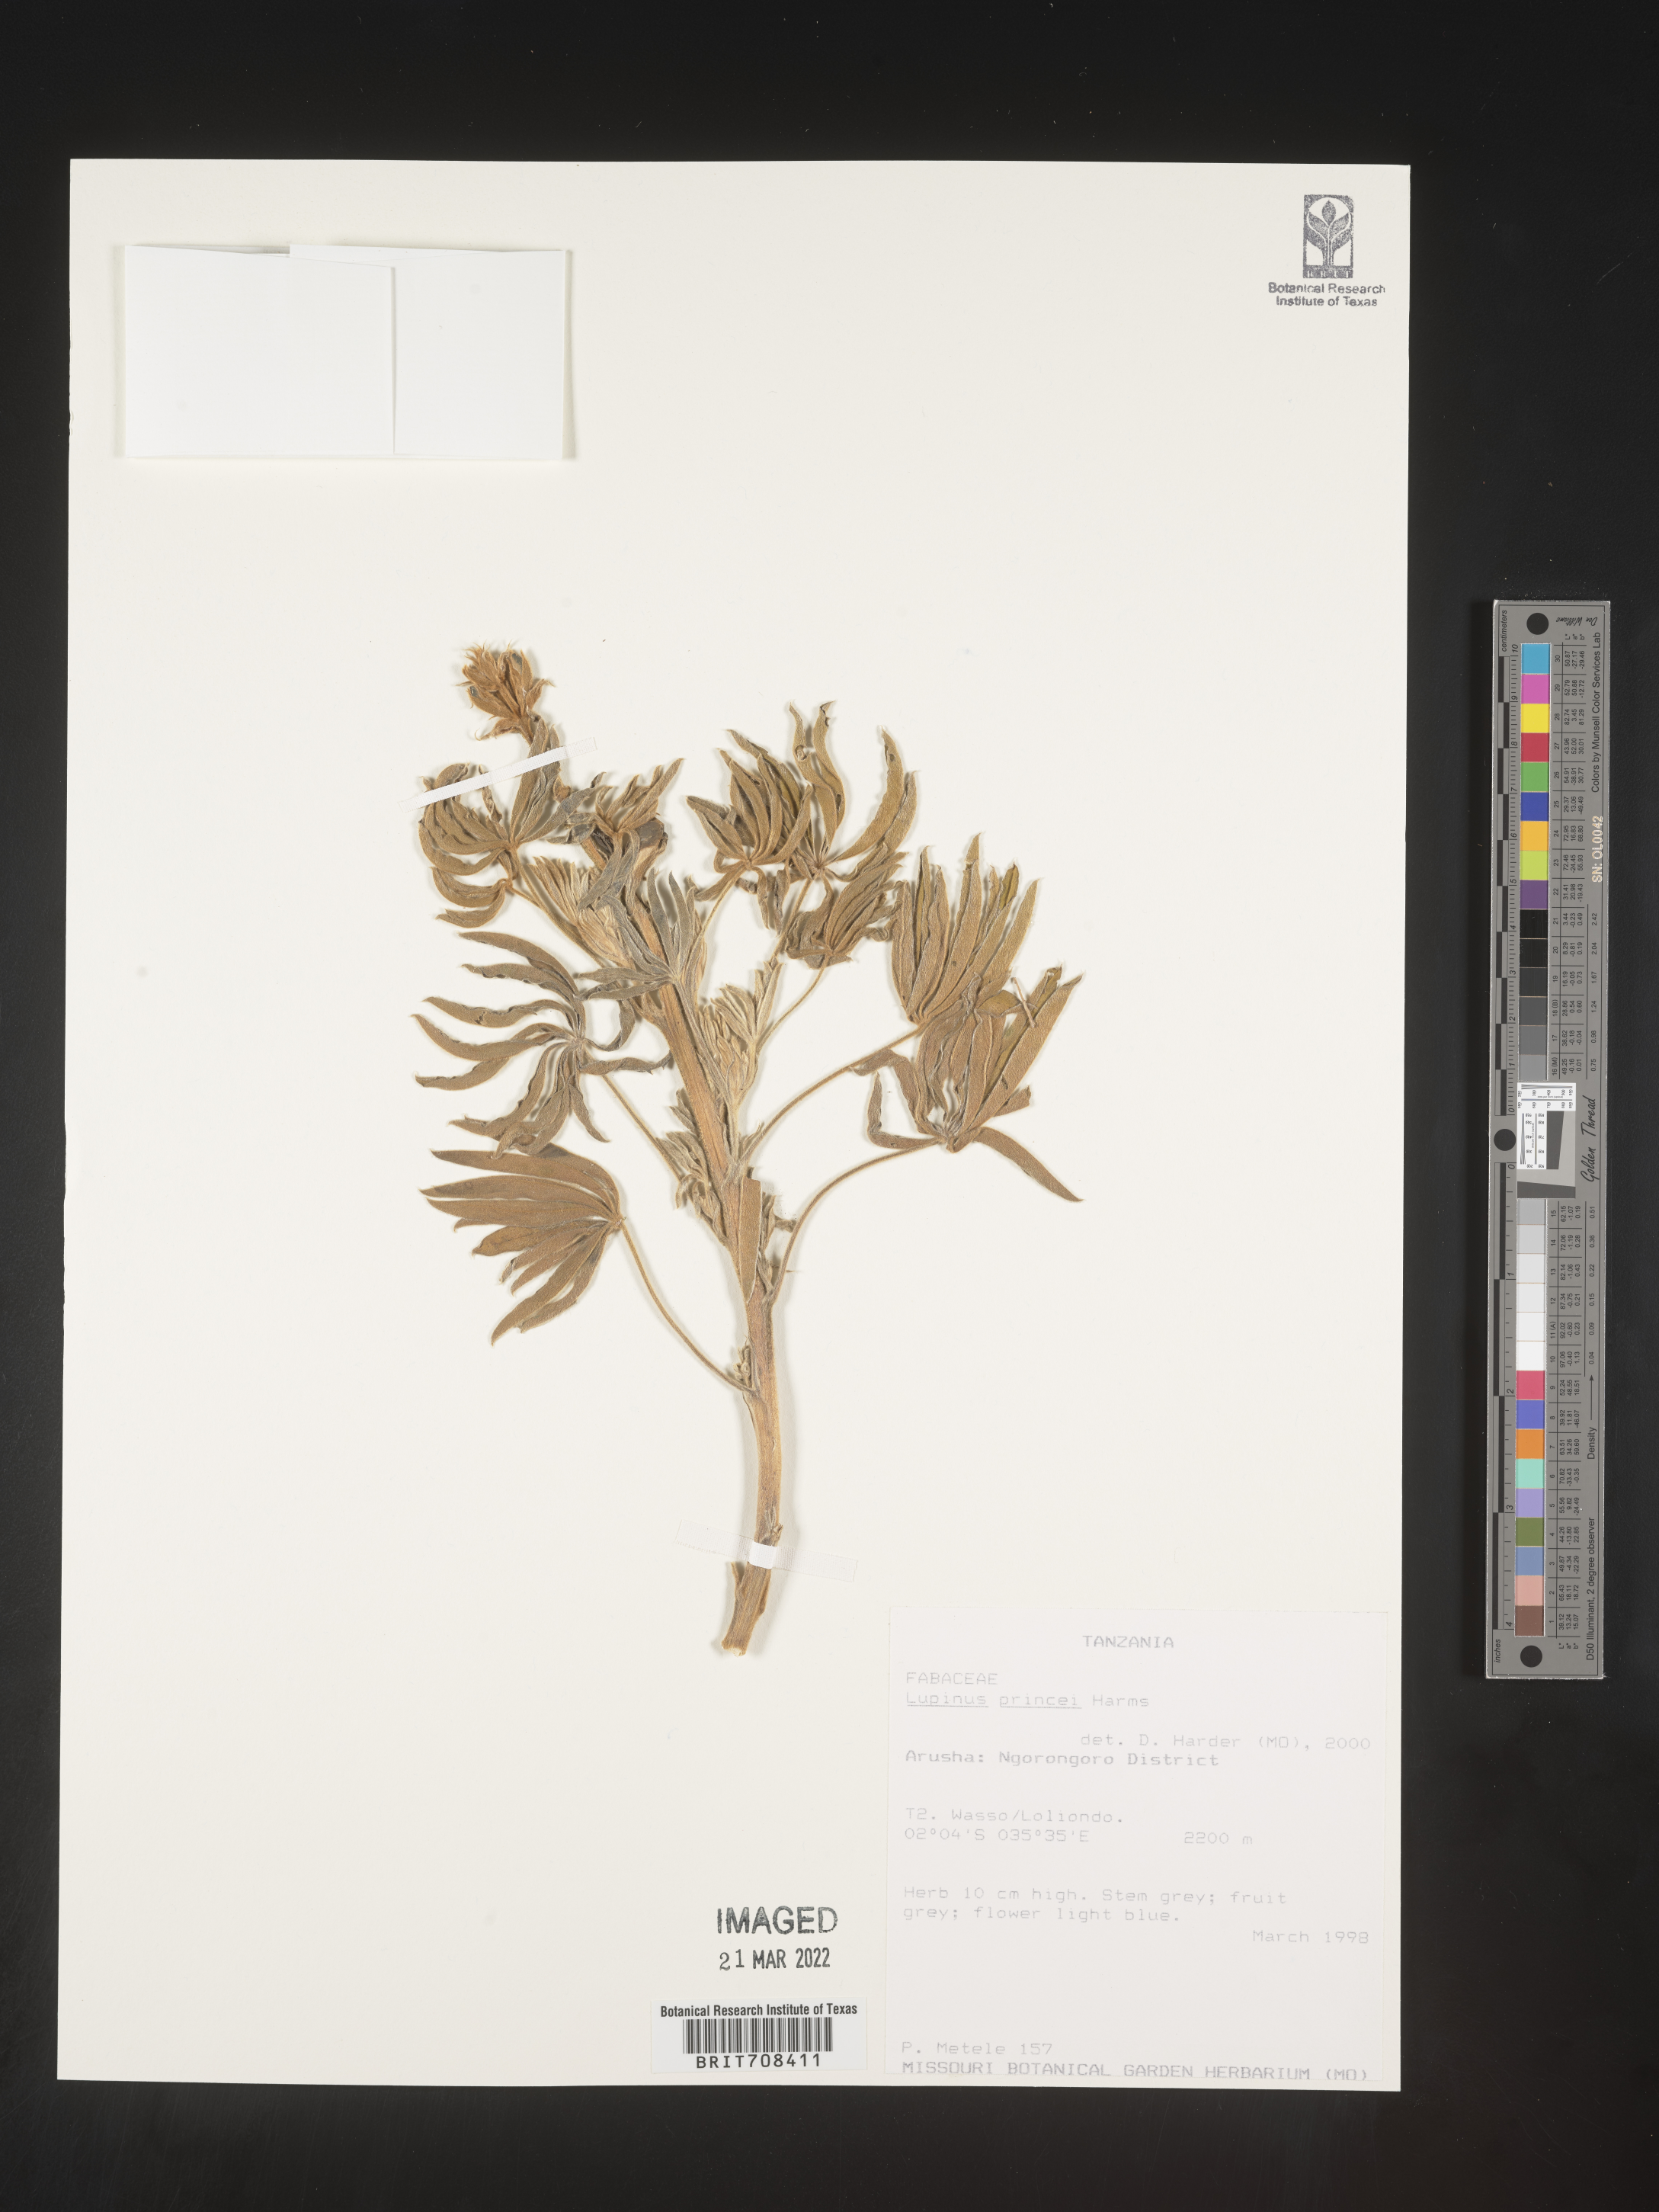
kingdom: Plantae
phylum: Tracheophyta
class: Magnoliopsida
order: Fabales
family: Fabaceae
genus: Lupinus
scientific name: Lupinus
